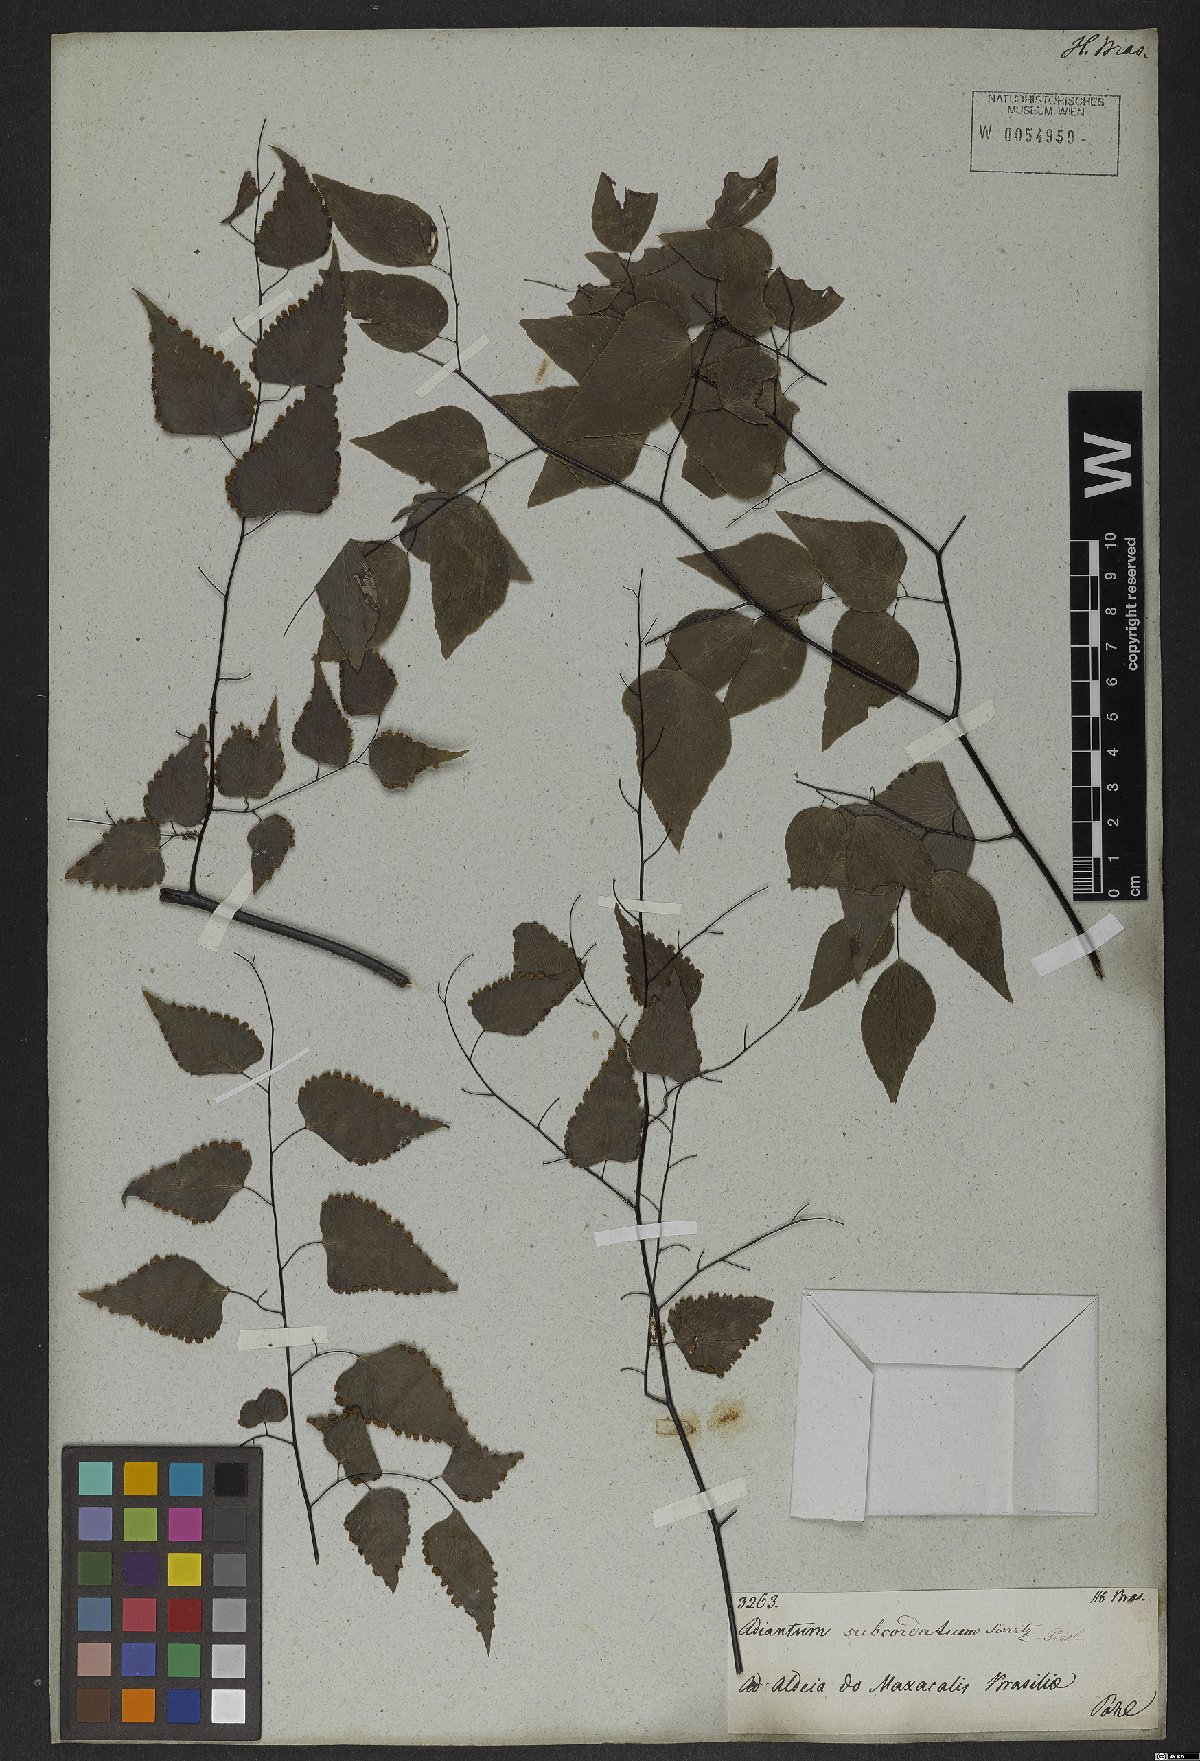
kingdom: Plantae
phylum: Tracheophyta
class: Polypodiopsida
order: Polypodiales
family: Pteridaceae
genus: Adiantum
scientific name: Adiantum subcordatum
